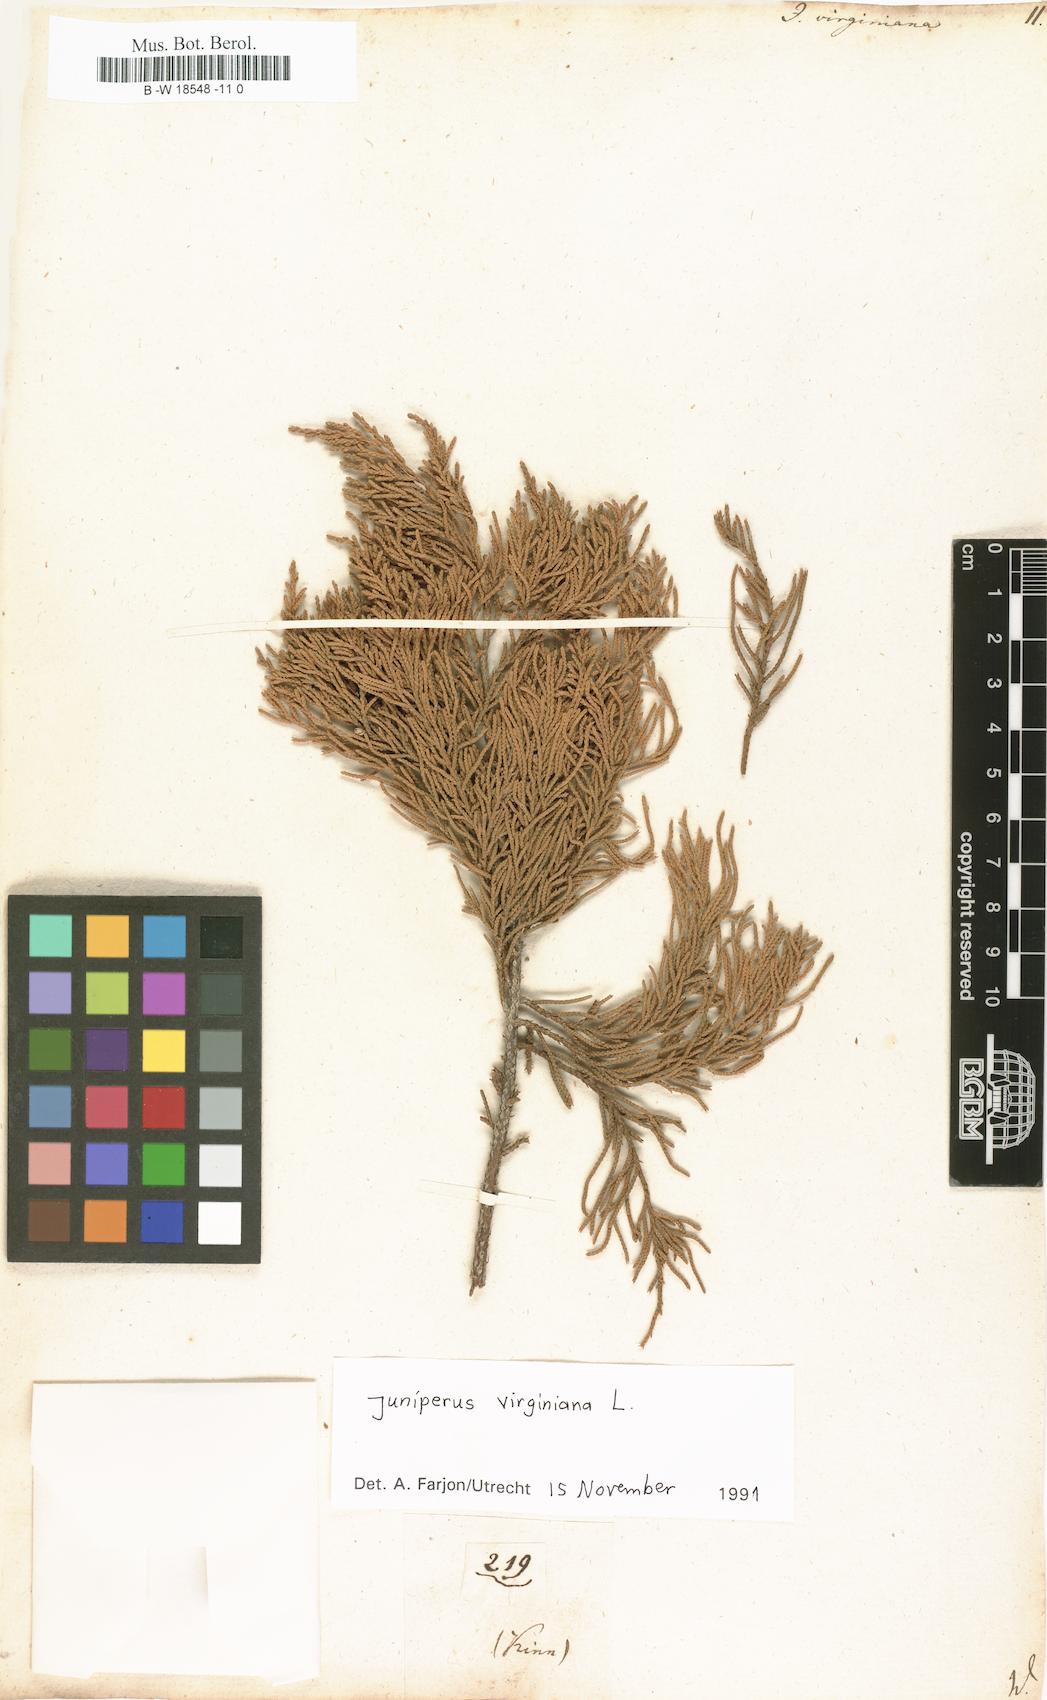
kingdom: Plantae
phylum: Tracheophyta
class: Pinopsida
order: Pinales
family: Cupressaceae
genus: Juniperus
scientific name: Juniperus virginiana
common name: Red juniper
